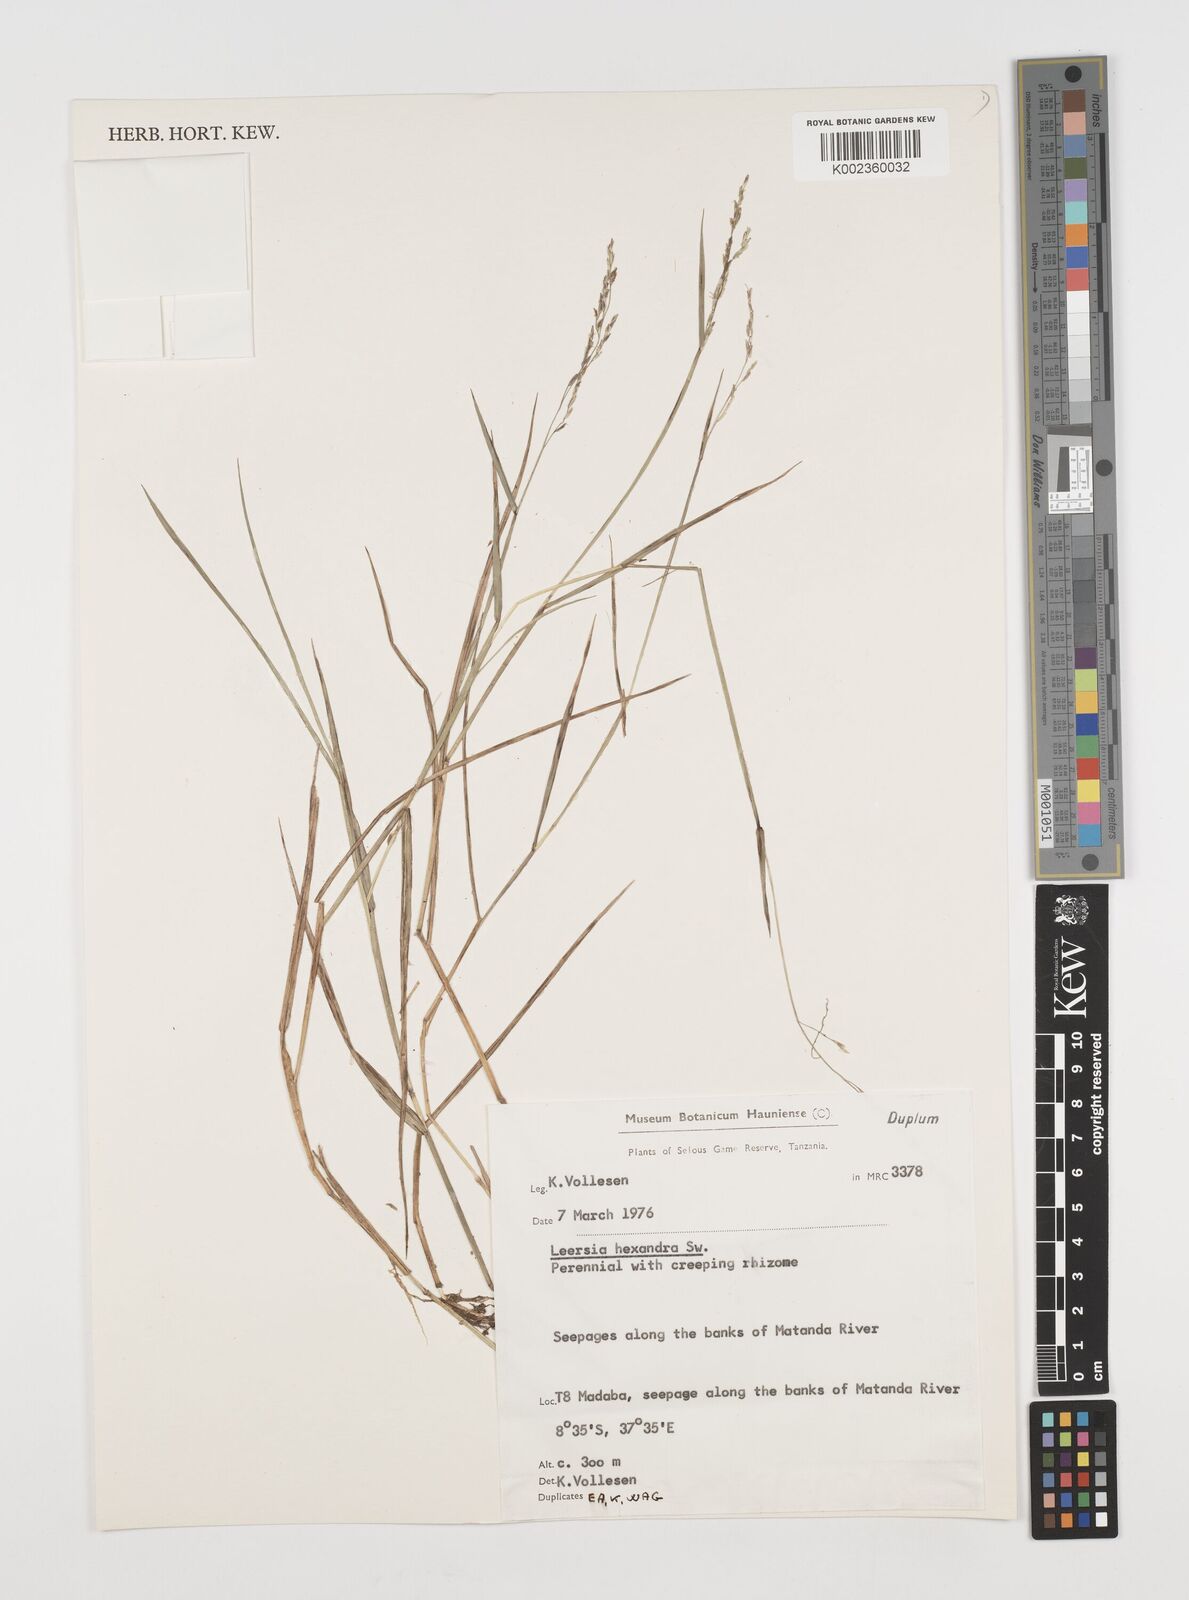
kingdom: Plantae
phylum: Tracheophyta
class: Liliopsida
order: Poales
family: Poaceae
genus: Leersia
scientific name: Leersia hexandra
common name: Southern cut grass
